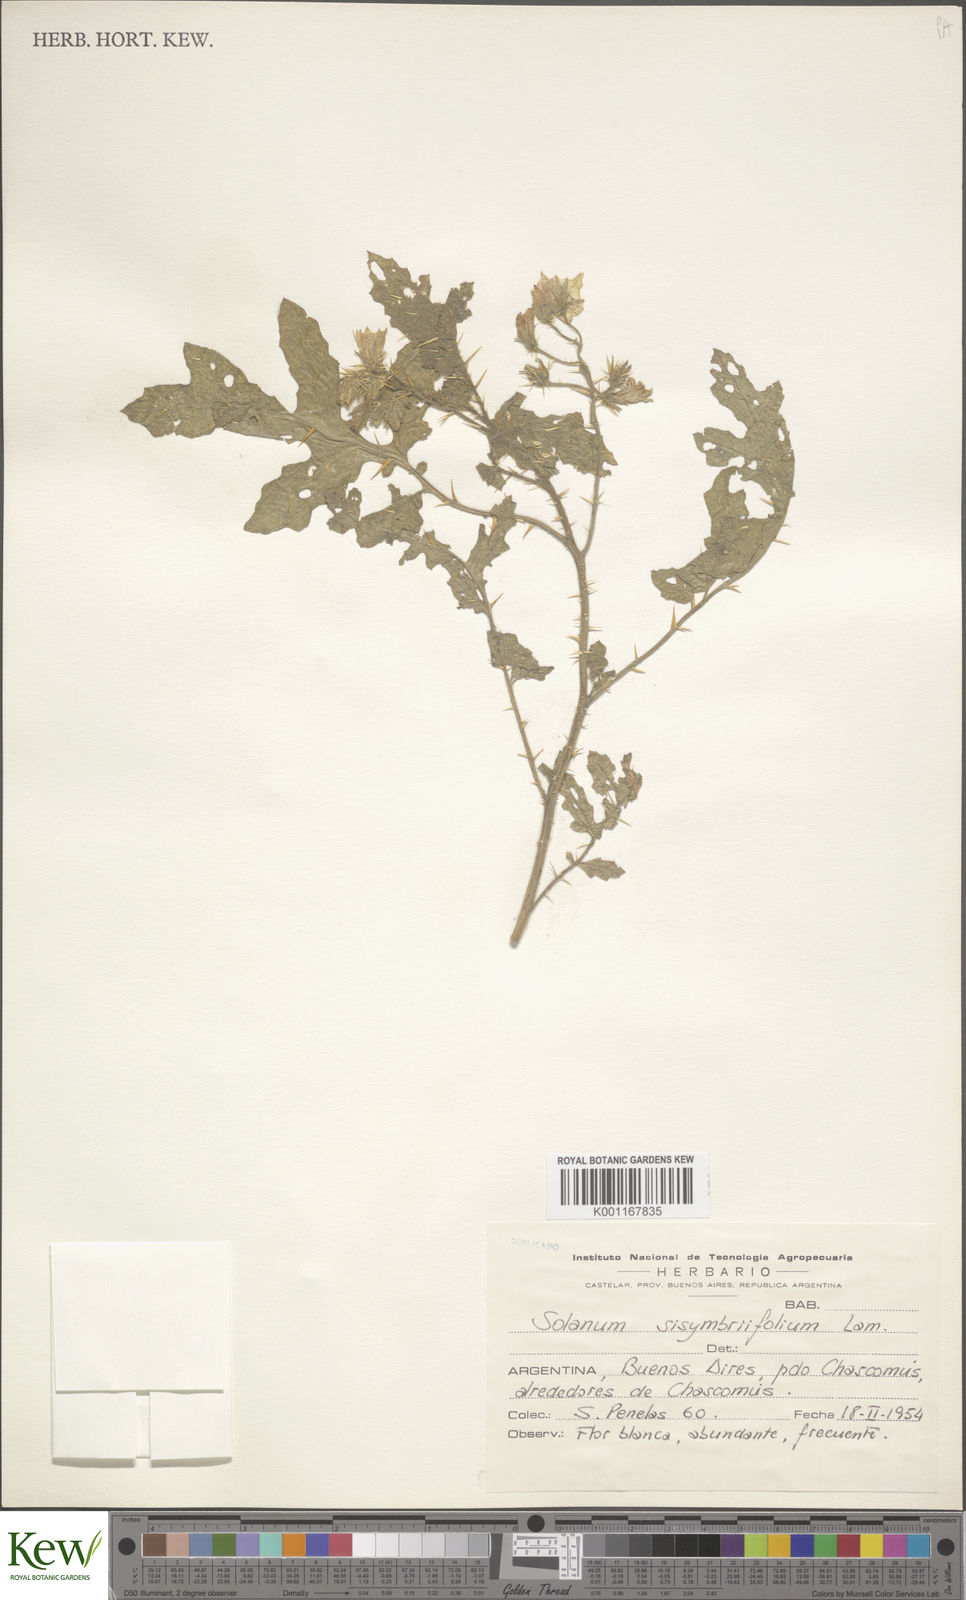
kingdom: Plantae
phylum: Tracheophyta
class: Magnoliopsida
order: Solanales
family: Solanaceae
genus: Solanum
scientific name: Solanum sisymbriifolium
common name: Red buffalo-bur
